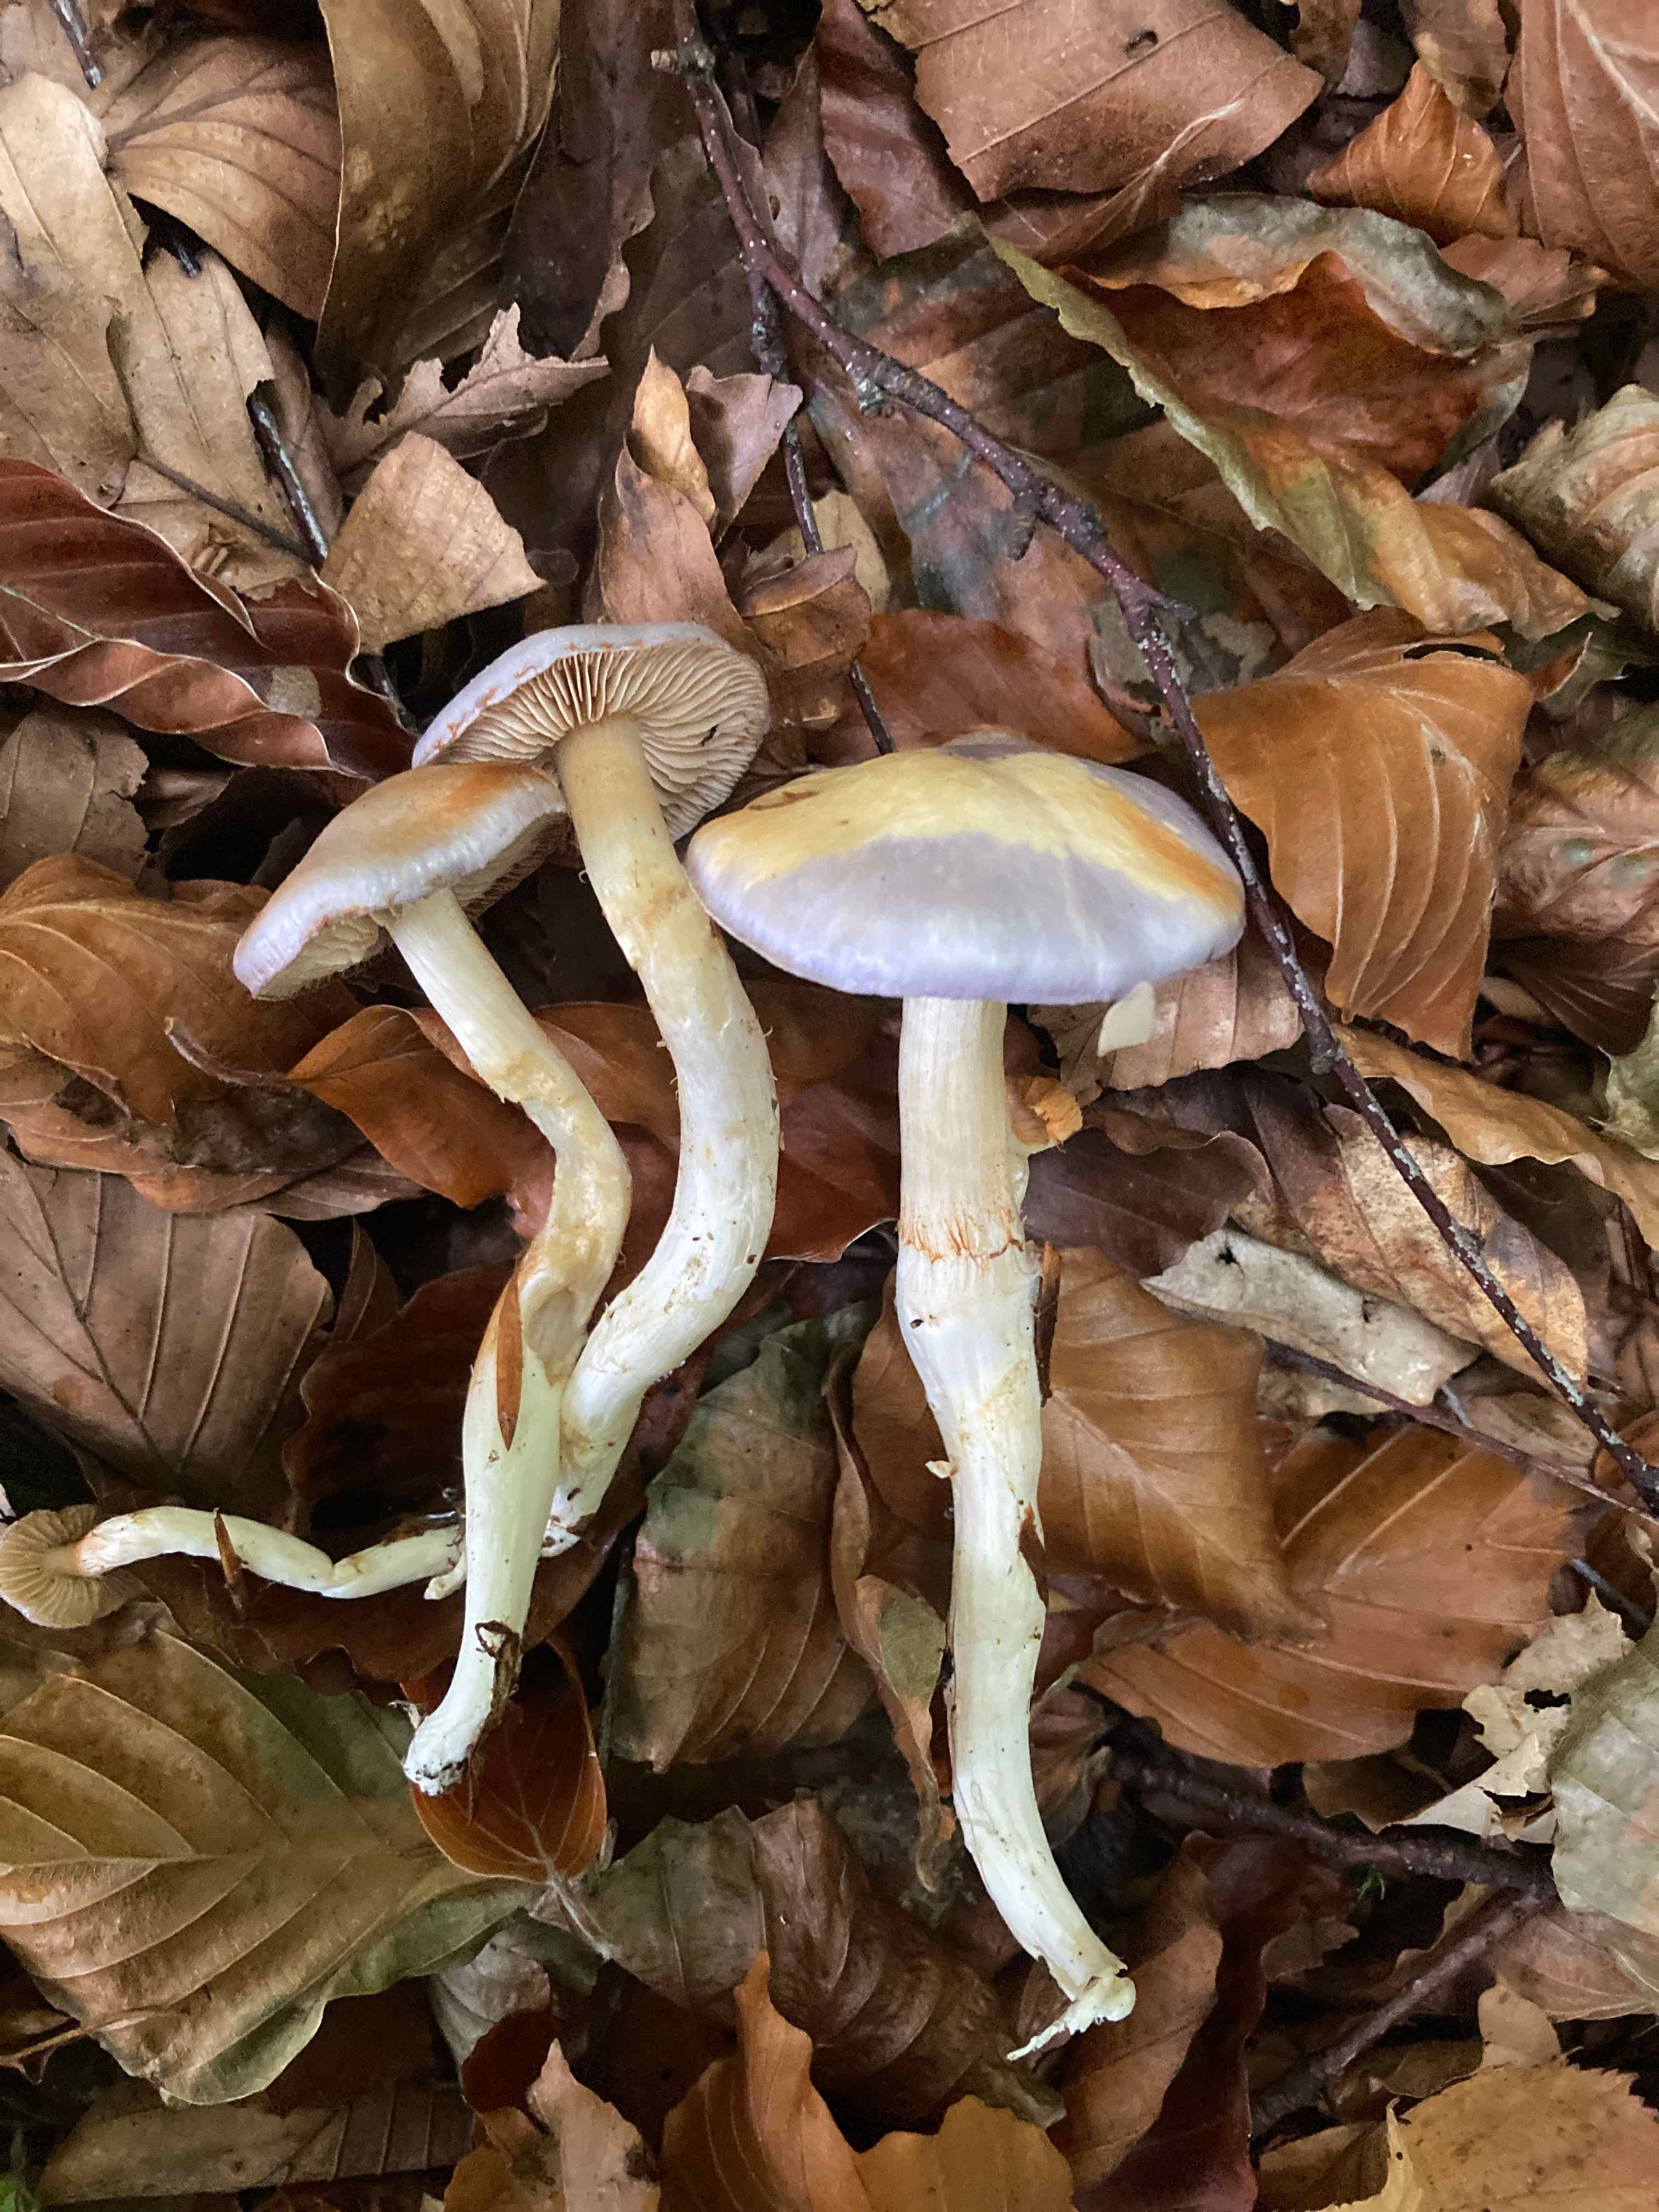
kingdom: Fungi
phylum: Basidiomycota
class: Agaricomycetes
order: Agaricales
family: Cortinariaceae
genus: Thaxterogaster
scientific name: Thaxterogaster croceocoeruleus
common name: blågullig slørhat
